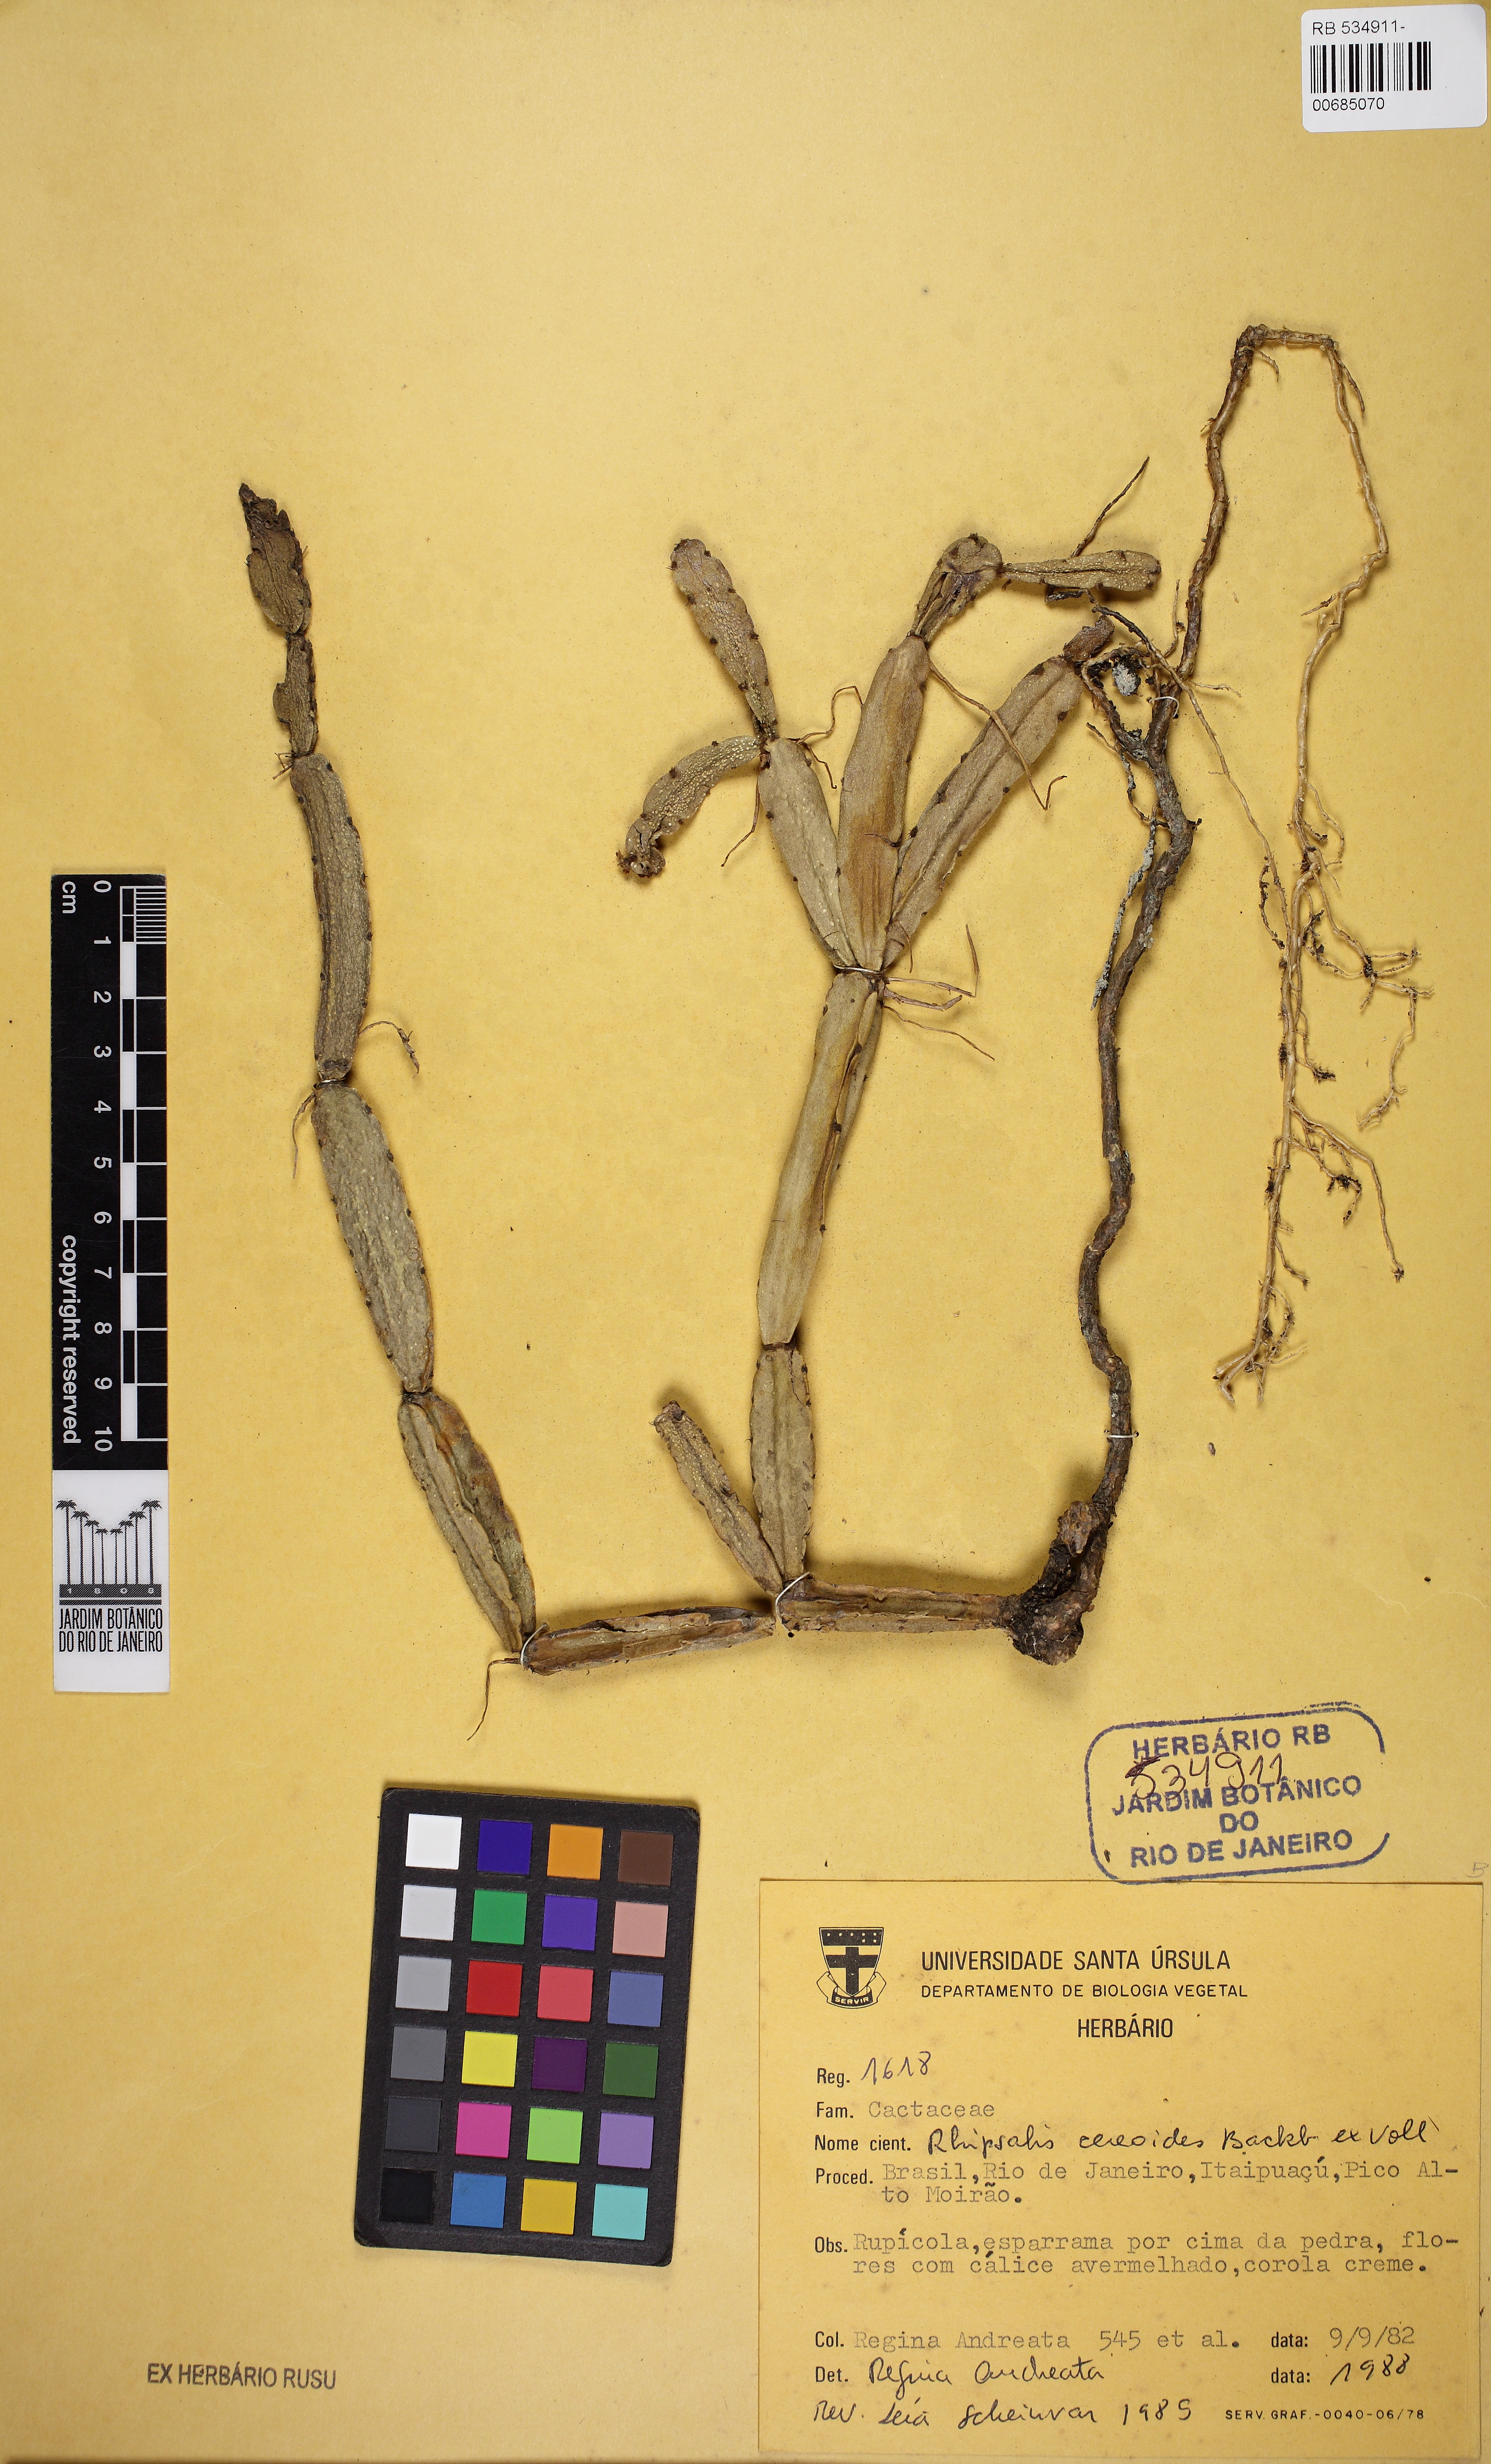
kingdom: Plantae
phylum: Tracheophyta
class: Magnoliopsida
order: Caryophyllales
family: Cactaceae
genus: Rhipsalis
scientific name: Rhipsalis cereoides
